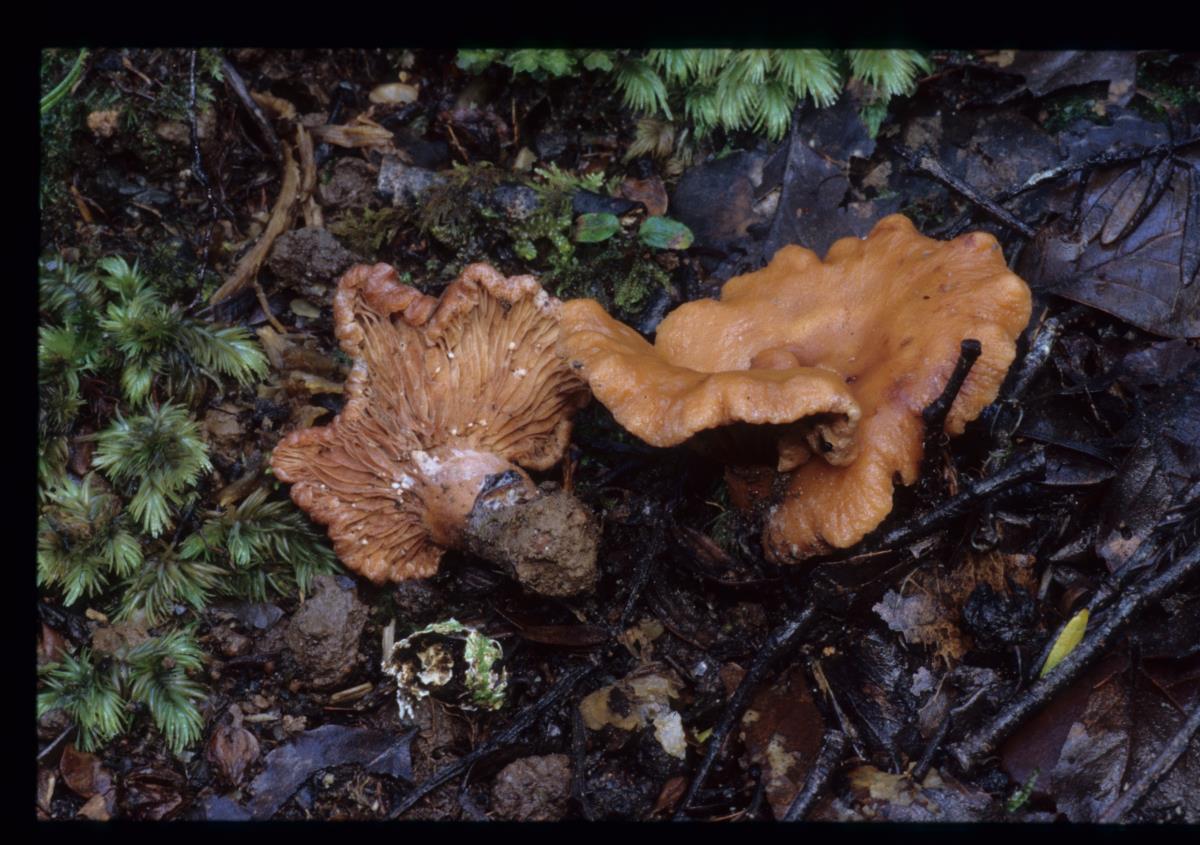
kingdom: Fungi
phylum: Basidiomycota
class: Agaricomycetes
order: Russulales
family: Russulaceae
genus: Lactarius
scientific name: Lactarius
